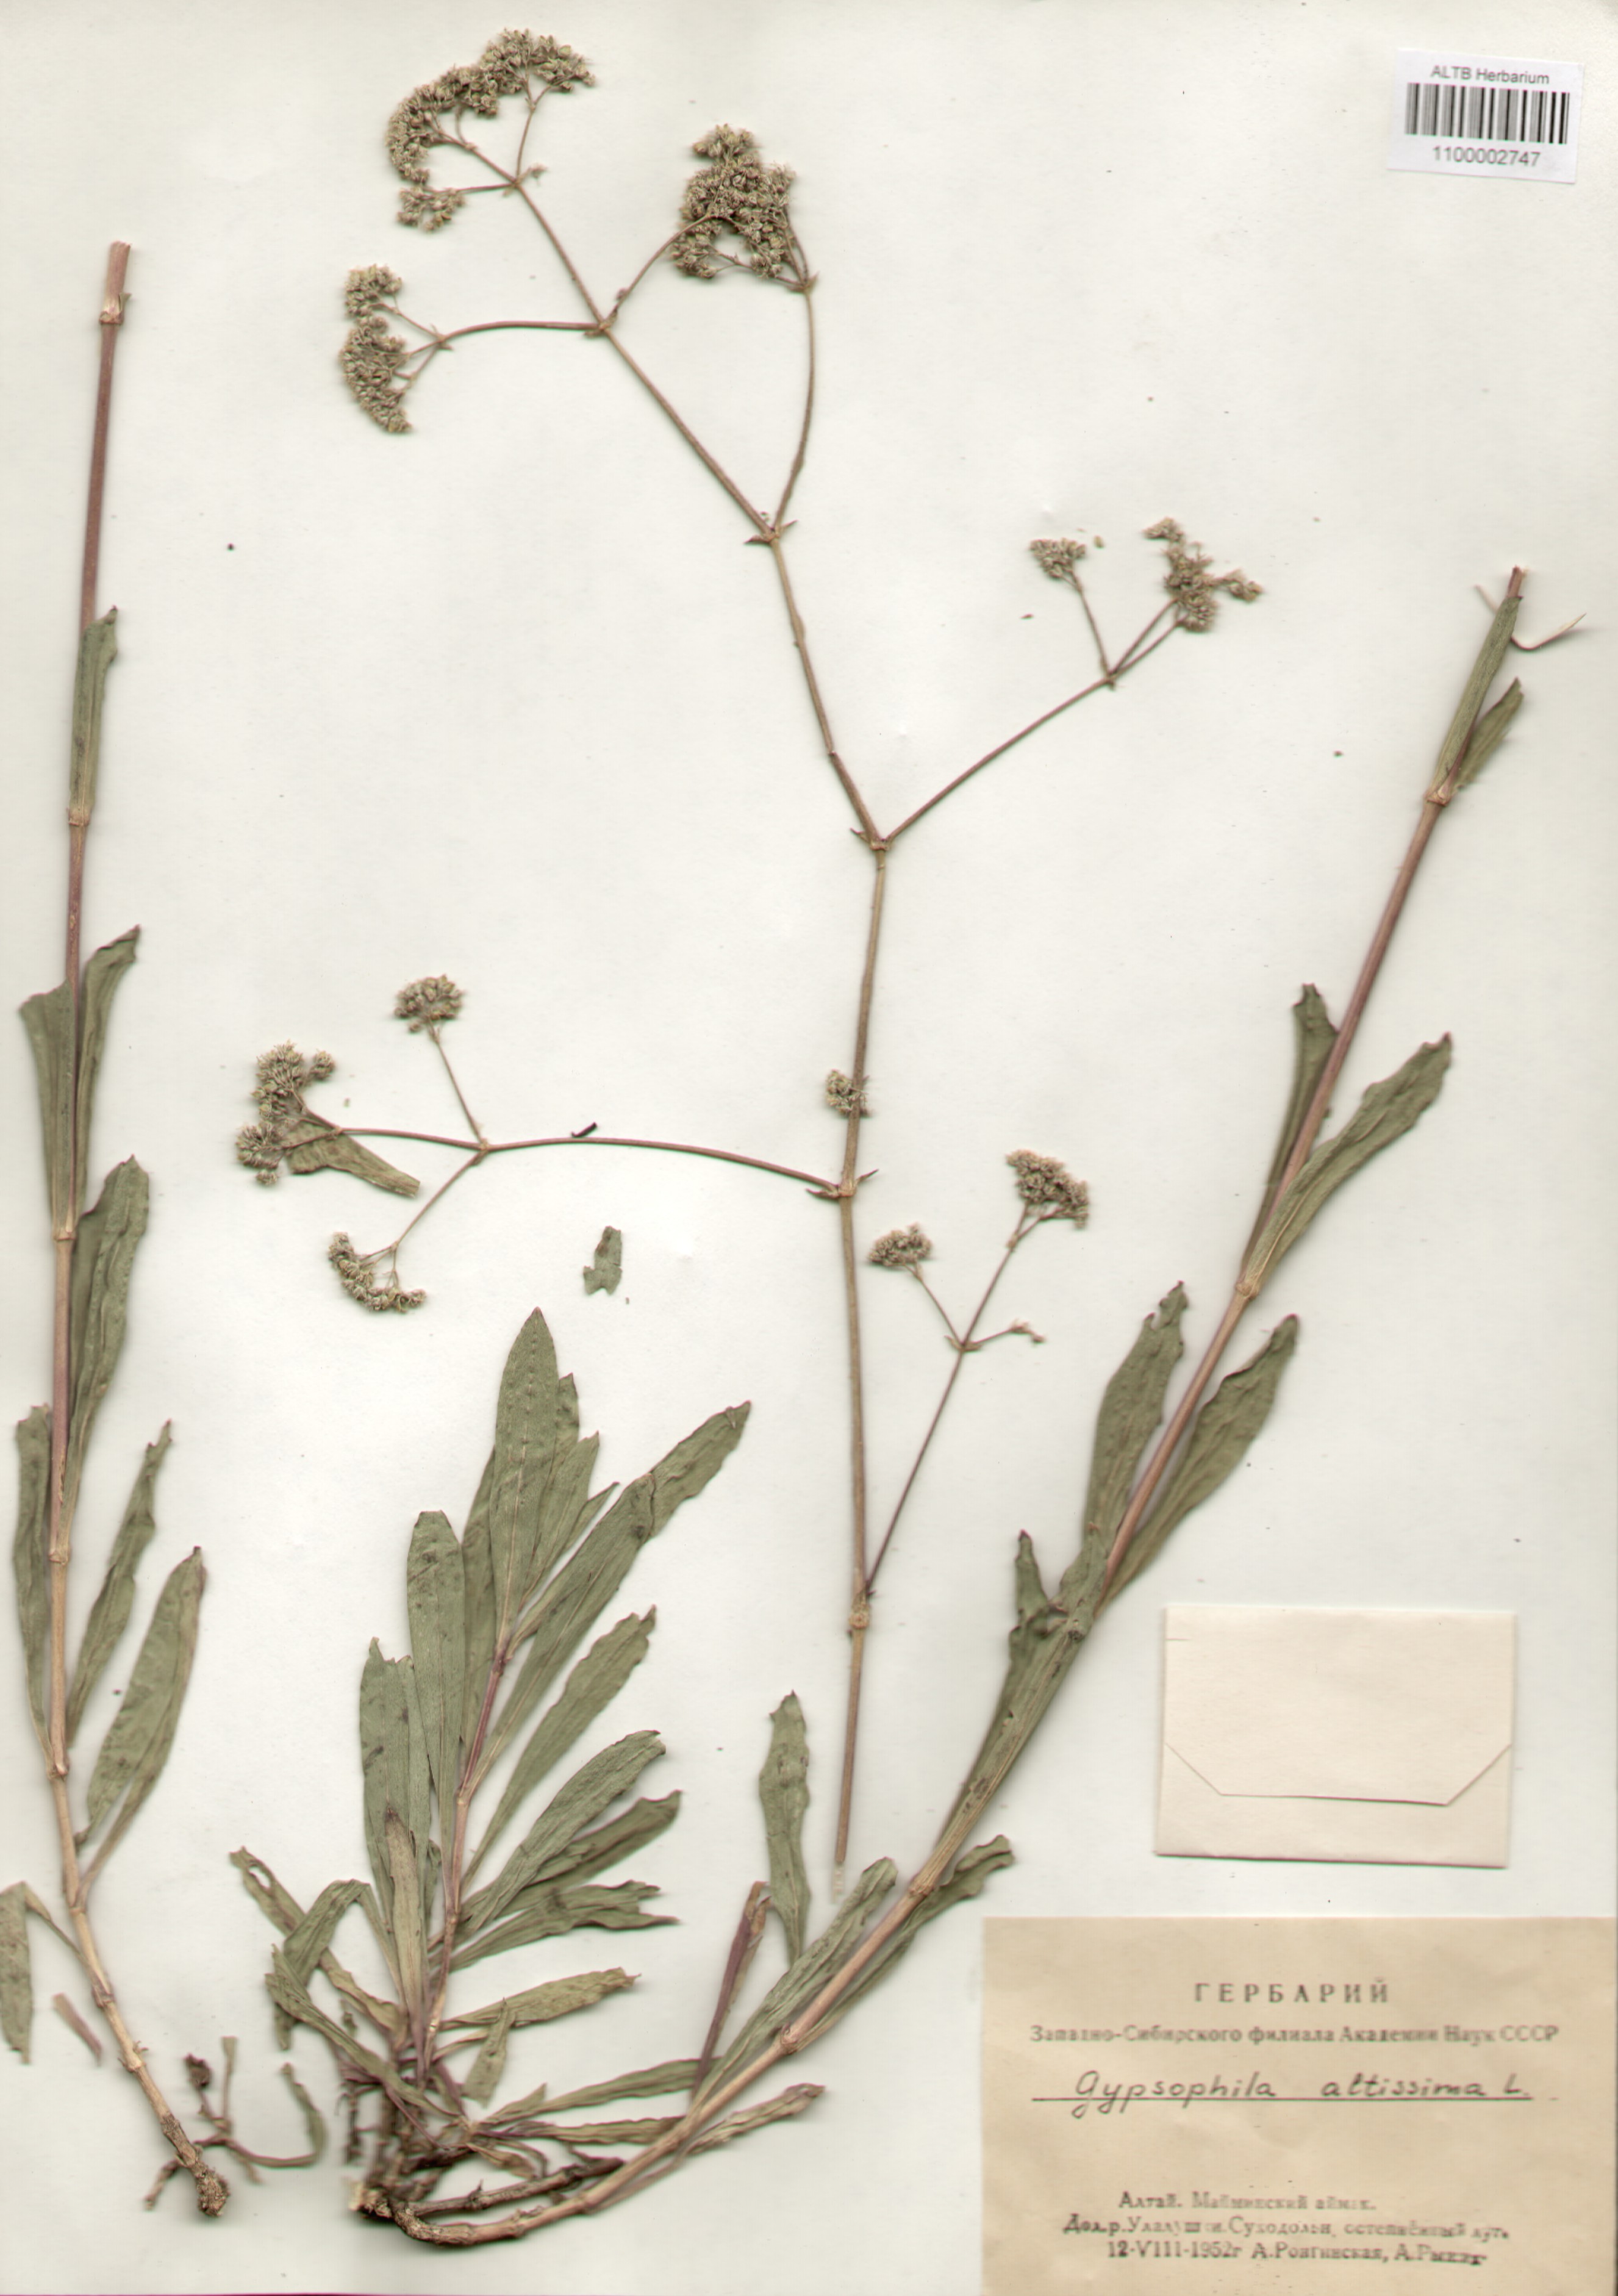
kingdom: Plantae
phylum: Tracheophyta
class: Magnoliopsida
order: Caryophyllales
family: Caryophyllaceae
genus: Gypsophila
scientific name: Gypsophila altissima
